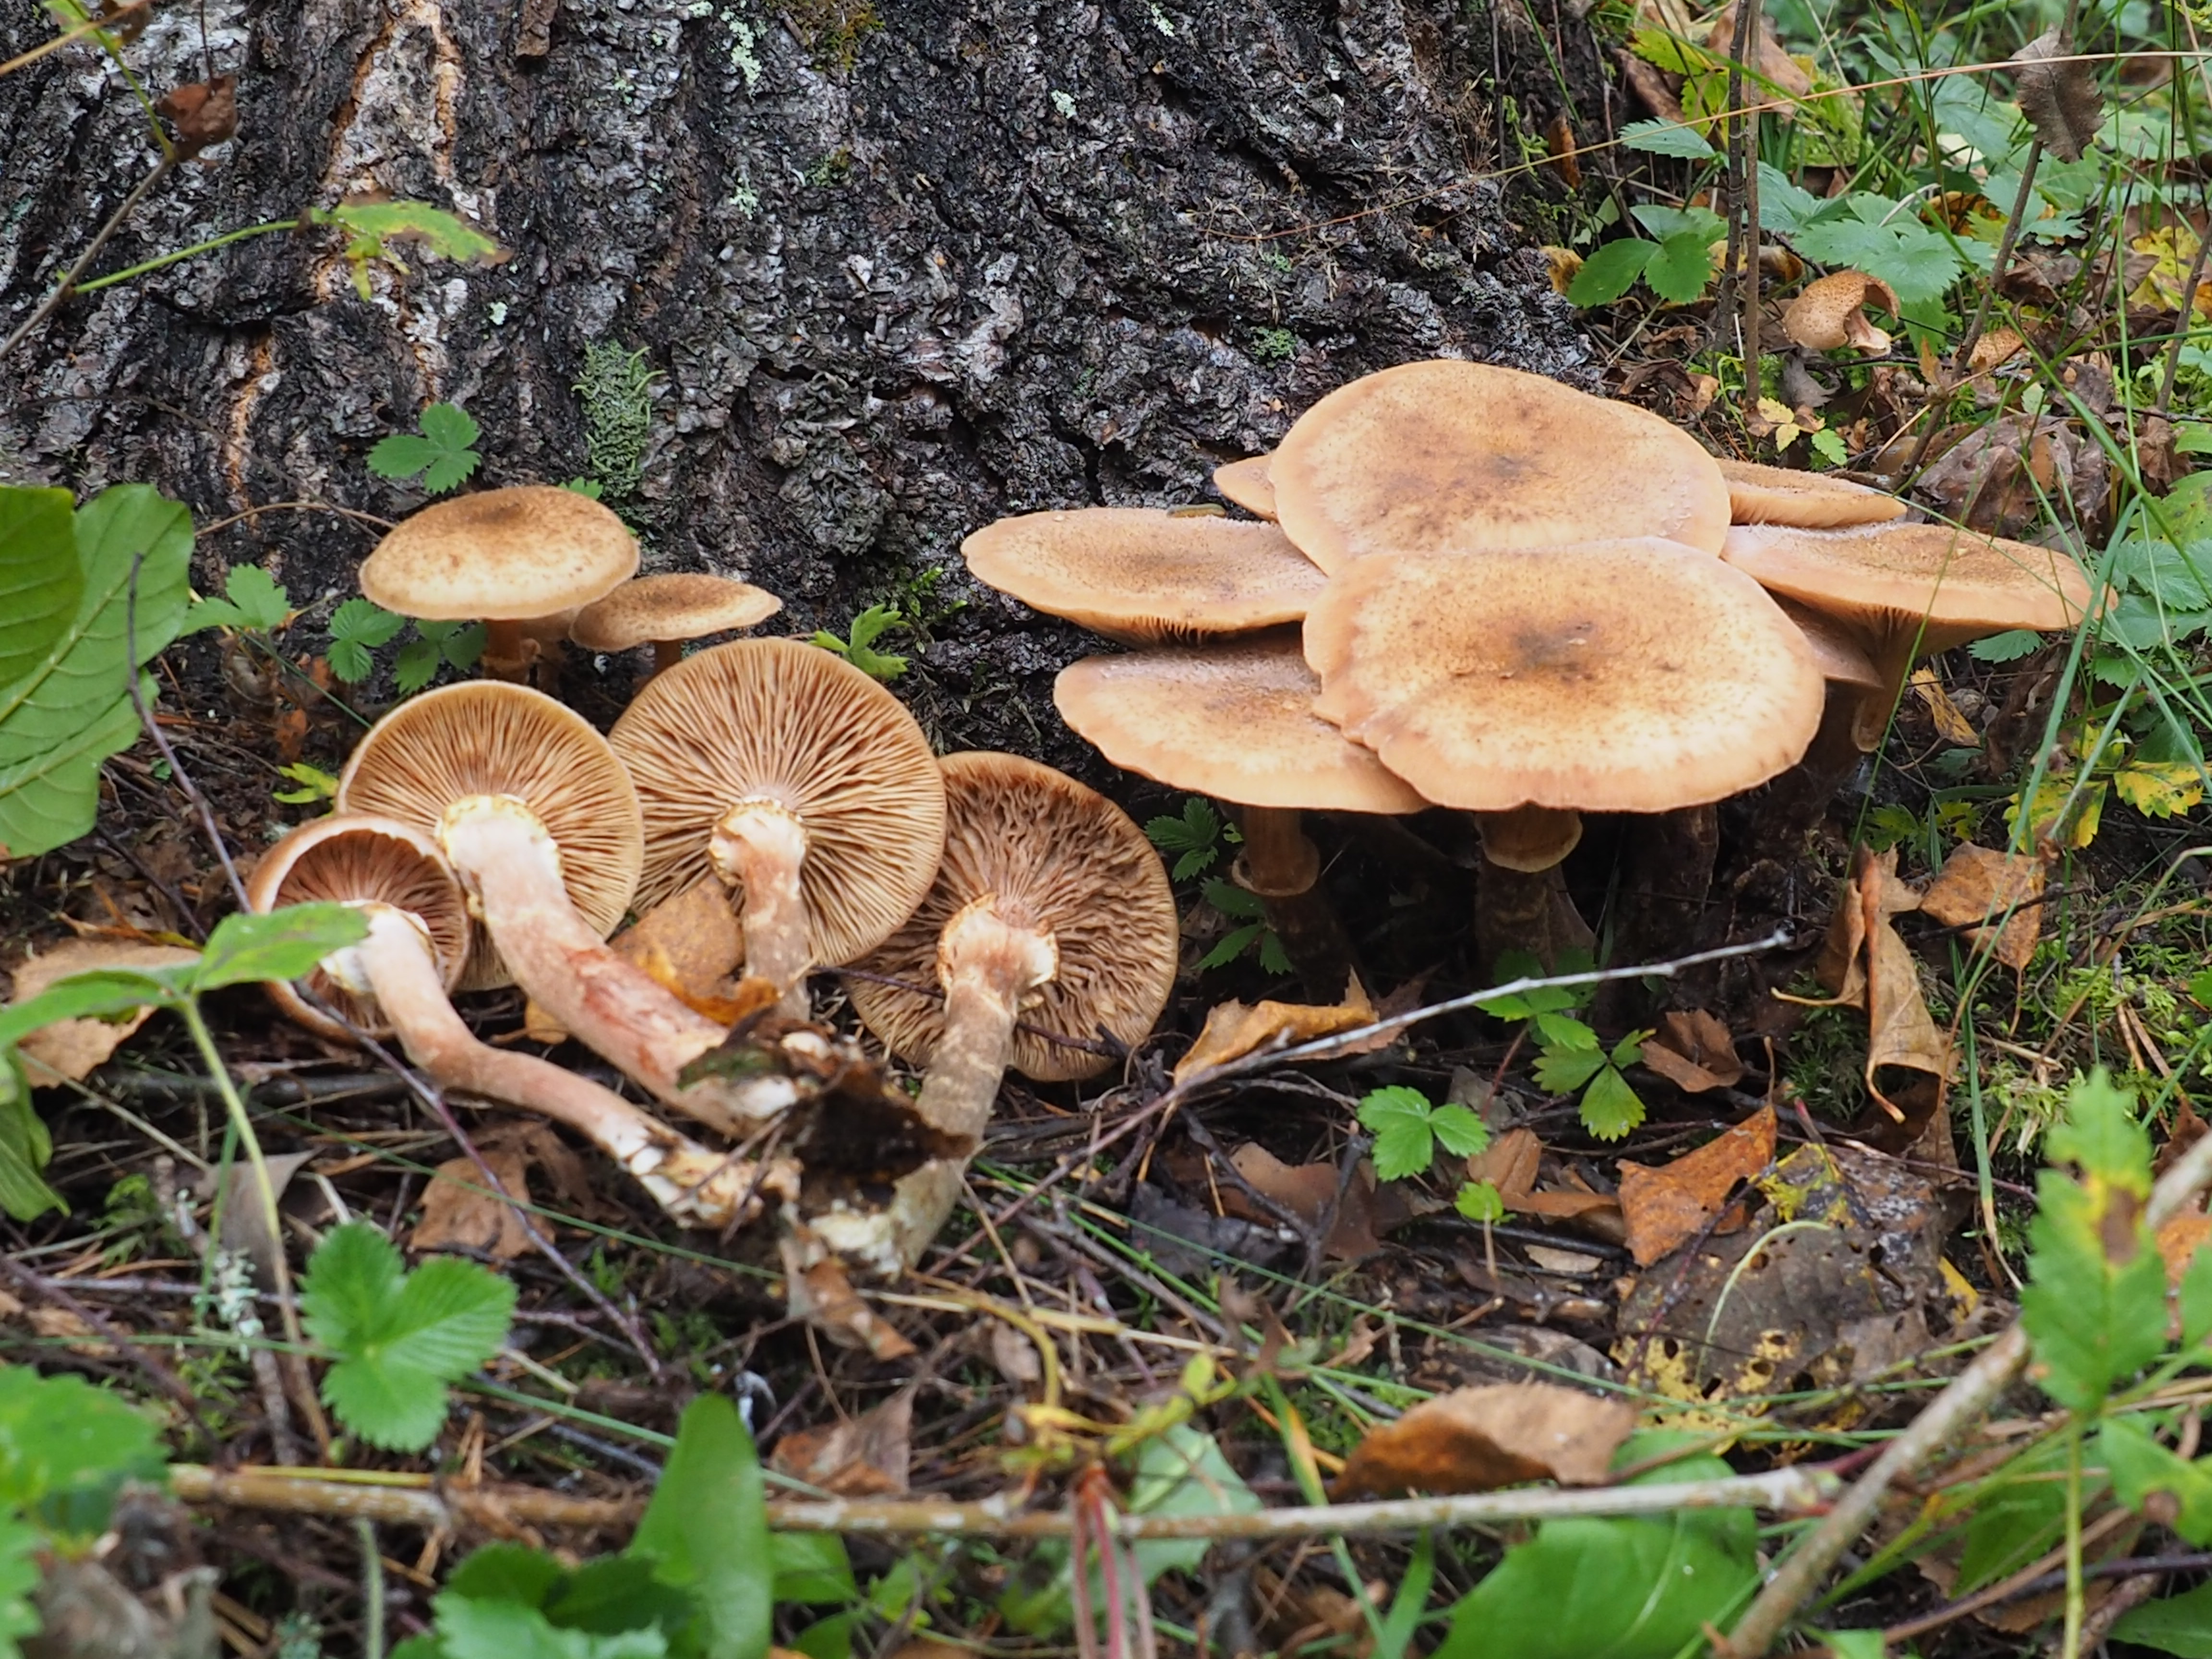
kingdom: Fungi
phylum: Basidiomycota
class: Agaricomycetes
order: Agaricales
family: Physalacriaceae
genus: Armillaria
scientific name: Armillaria borealis
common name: Northern honey fungus
